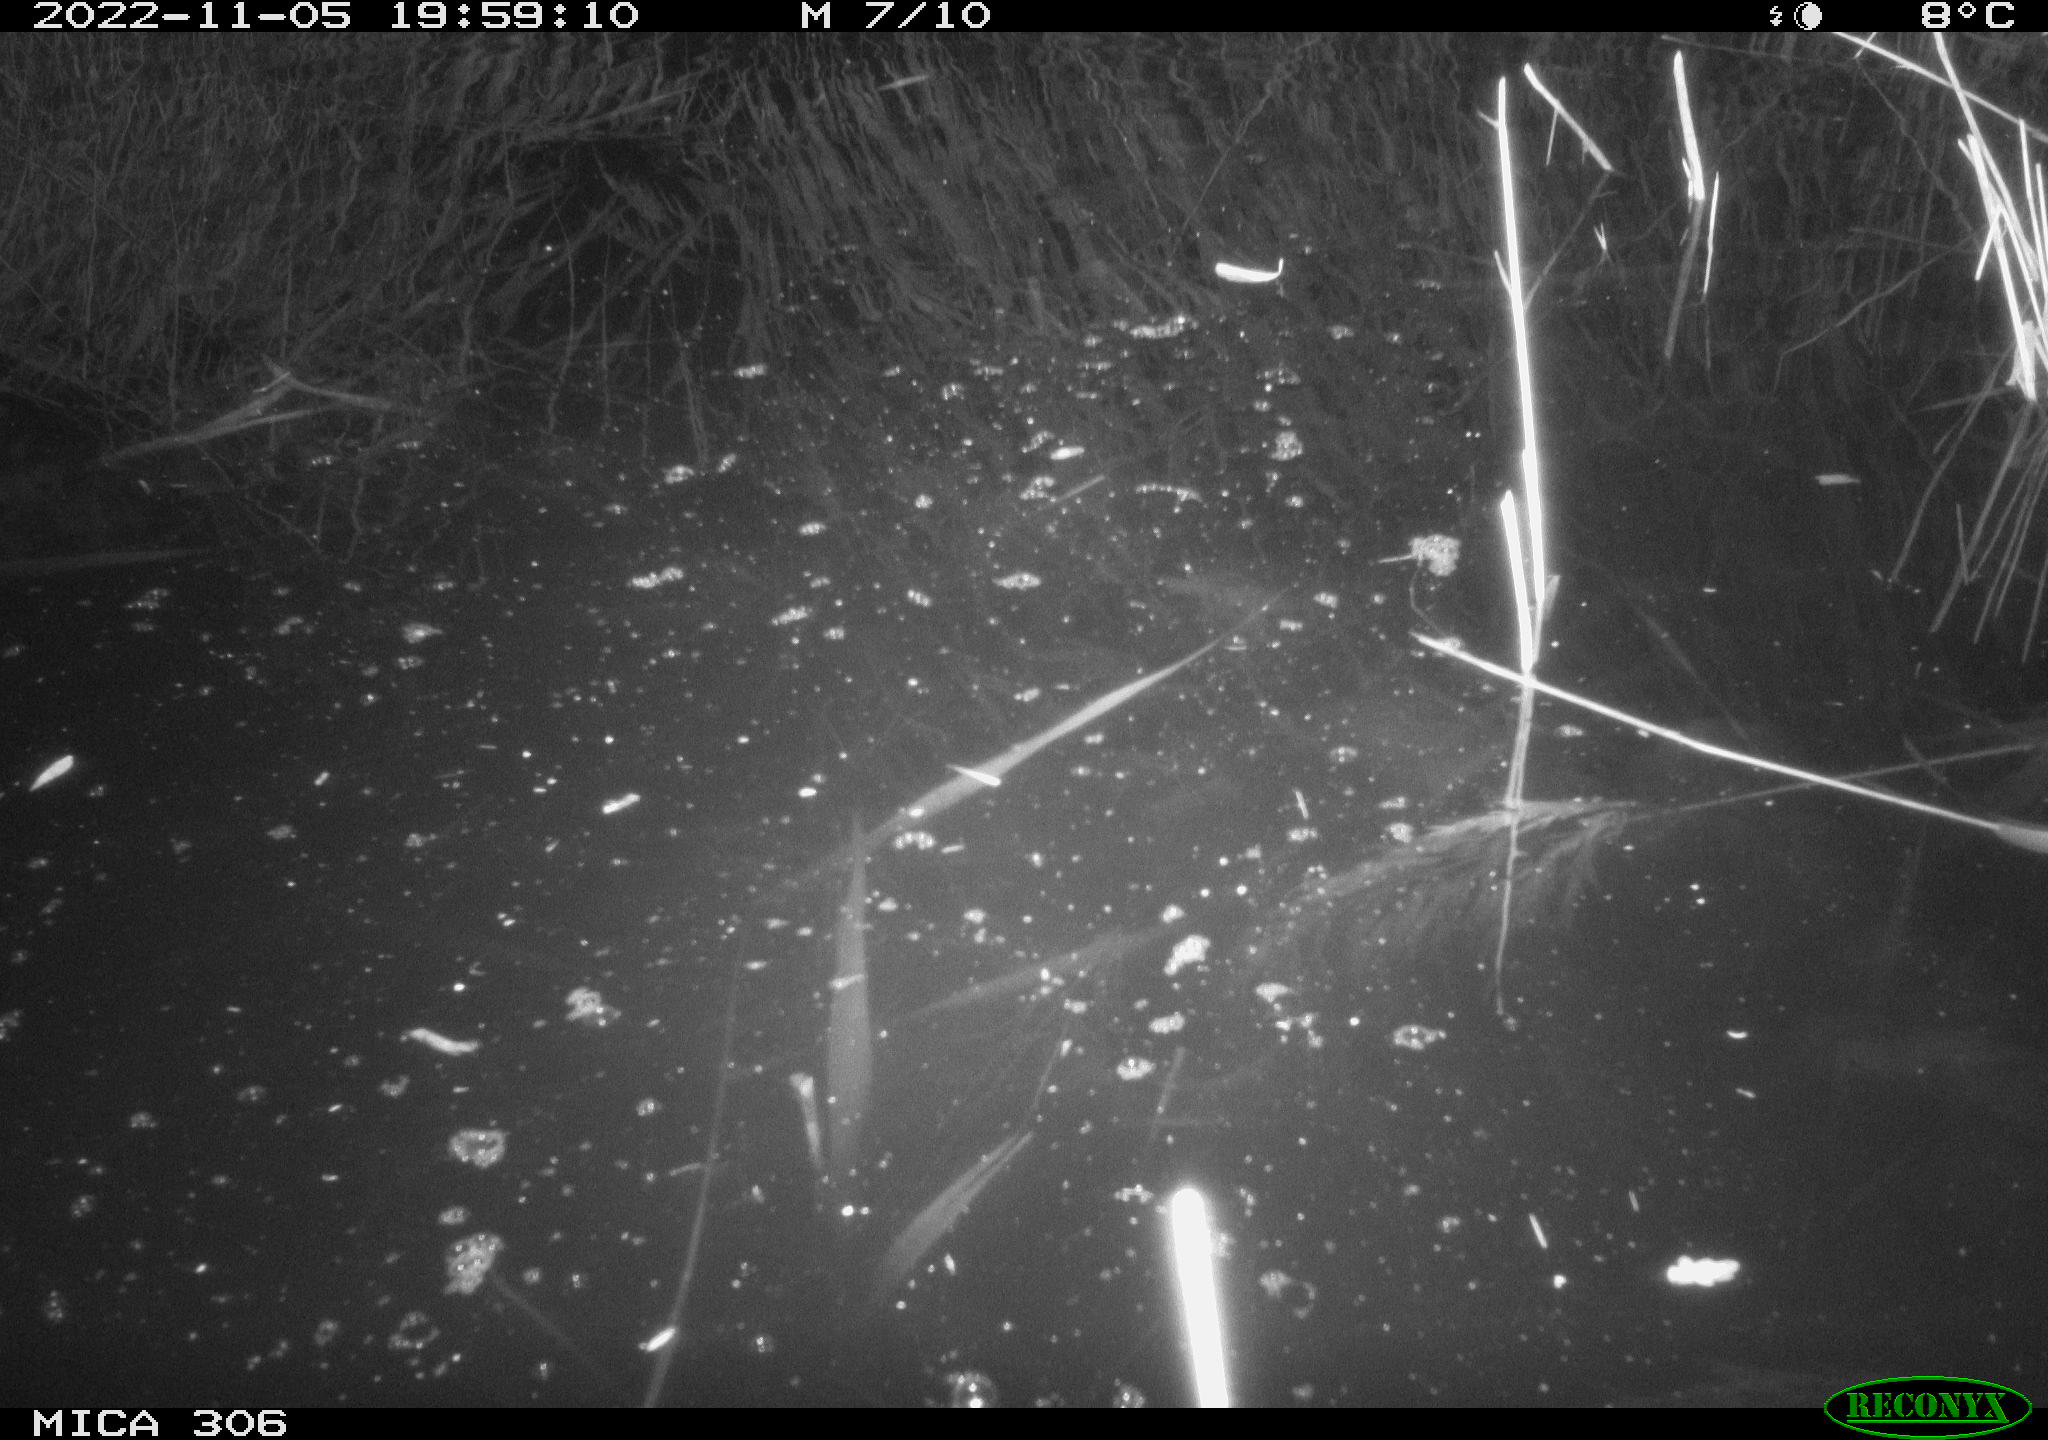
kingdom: Animalia
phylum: Chordata
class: Mammalia
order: Rodentia
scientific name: Rodentia
